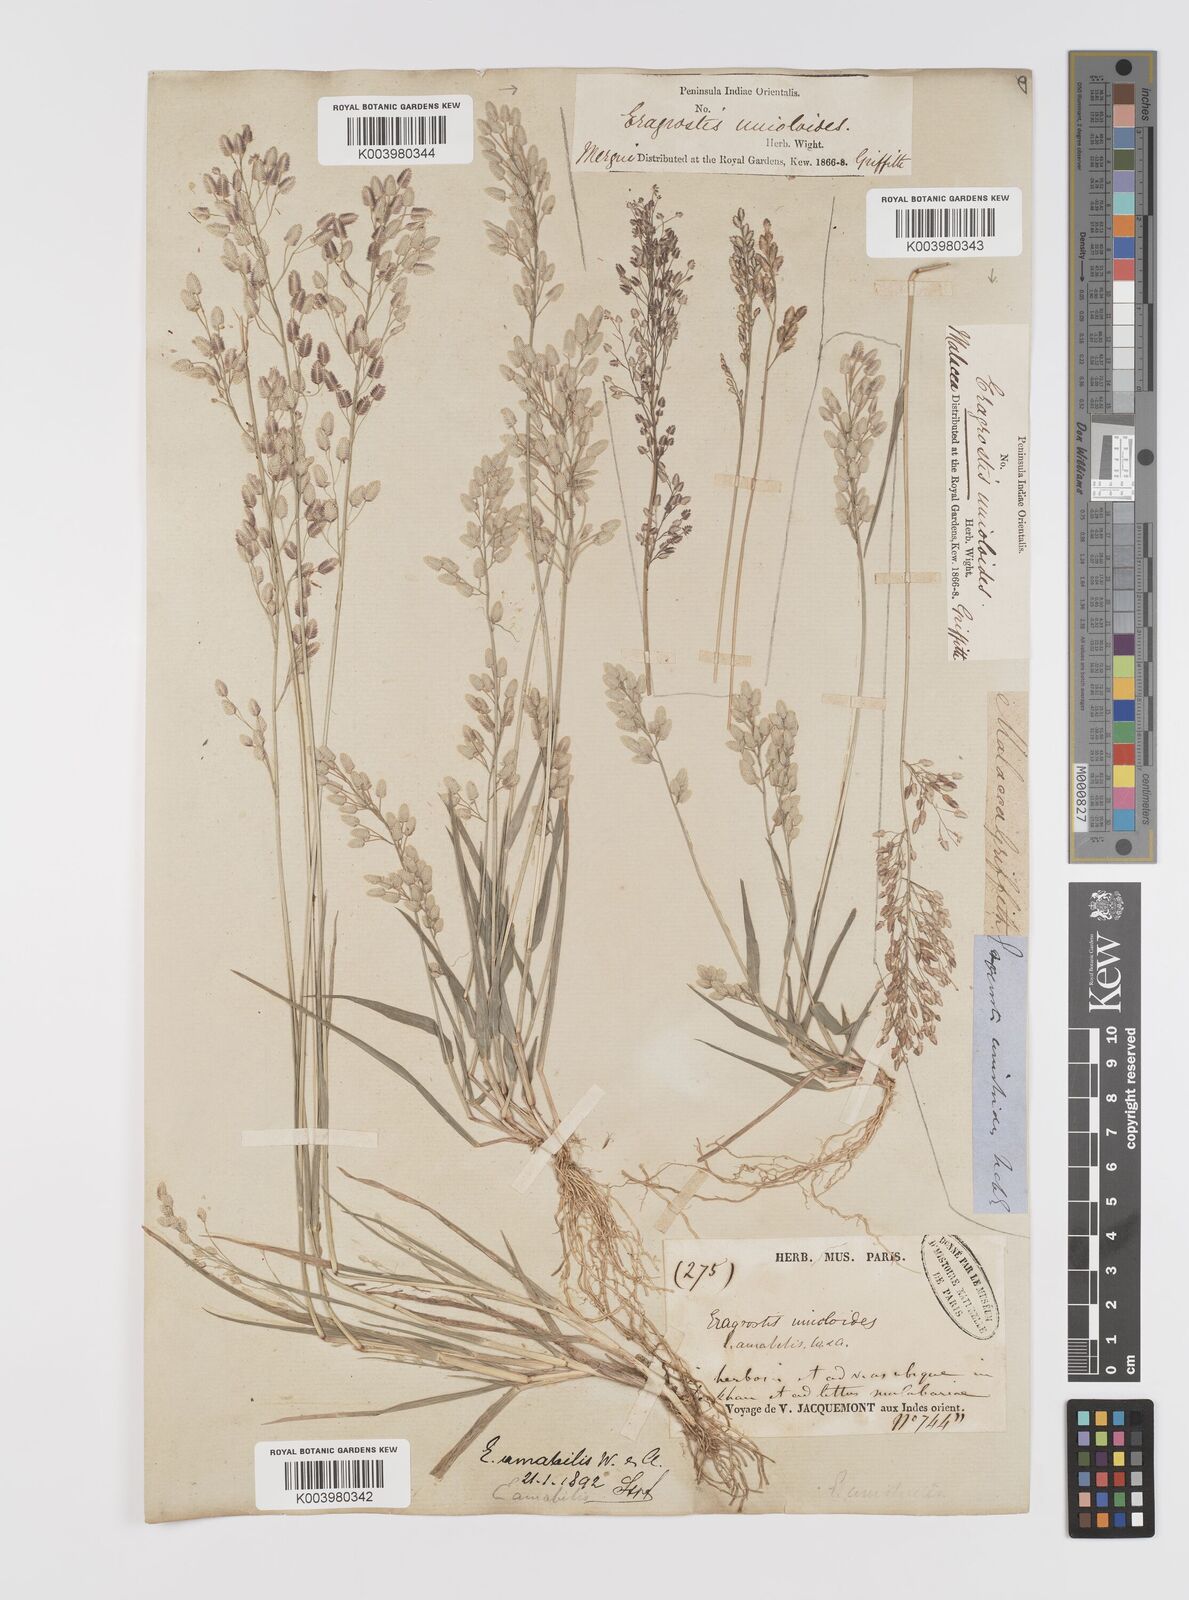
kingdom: Plantae
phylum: Tracheophyta
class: Liliopsida
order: Poales
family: Poaceae
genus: Eragrostis
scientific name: Eragrostis unioloides
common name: Chinese lovegrass
